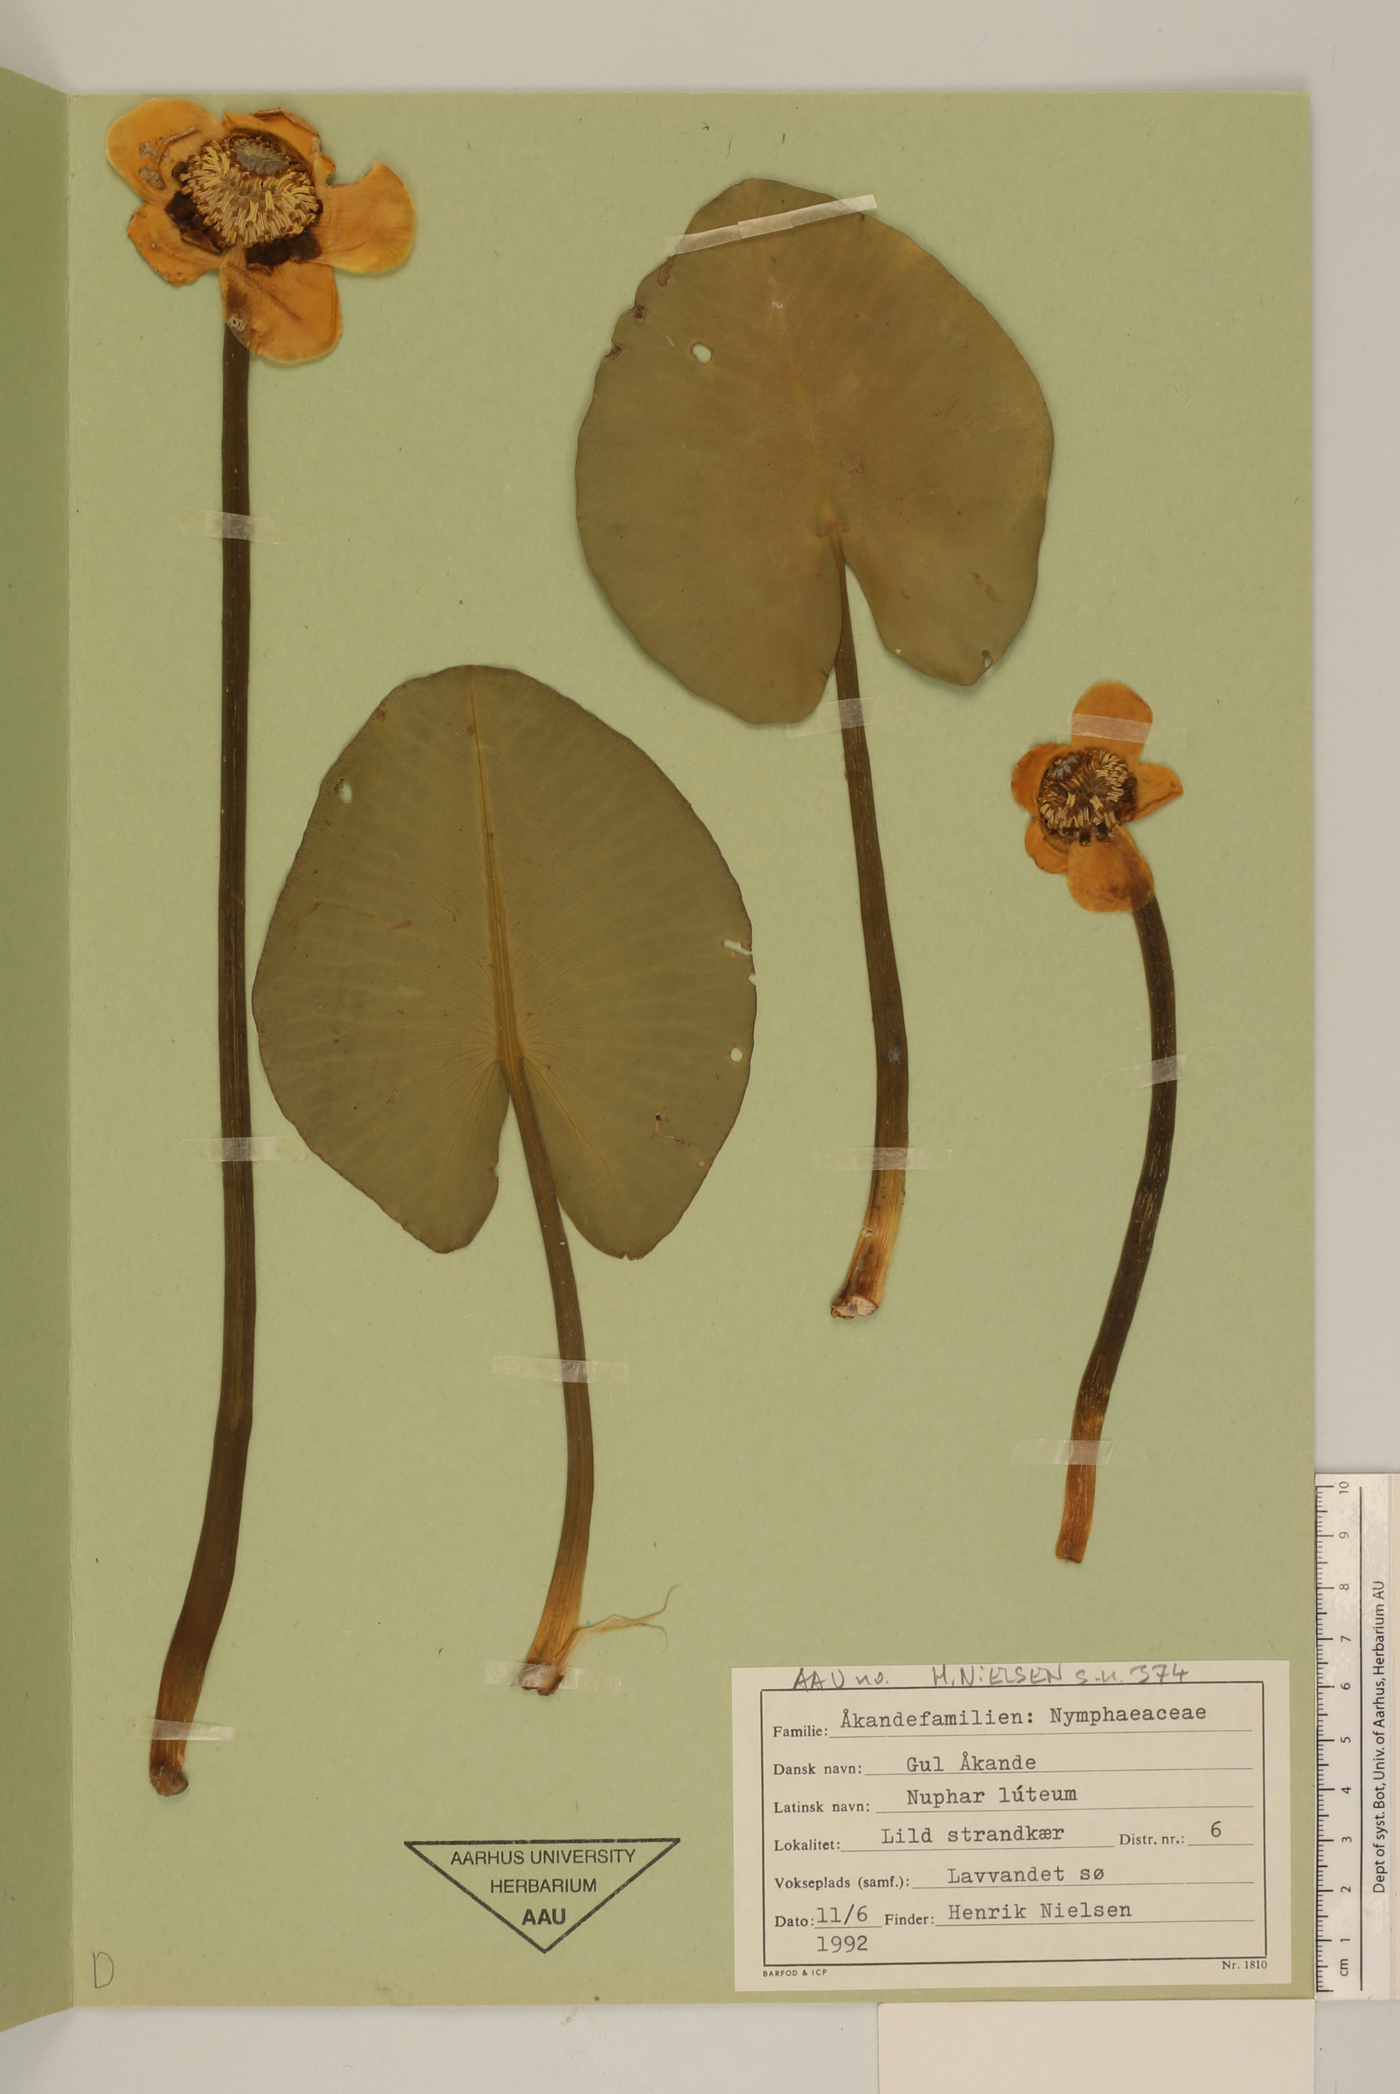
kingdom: Plantae
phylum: Tracheophyta
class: Magnoliopsida
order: Nymphaeales
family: Nymphaeaceae
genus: Nuphar
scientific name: Nuphar lutea
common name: Yellow water-lily
